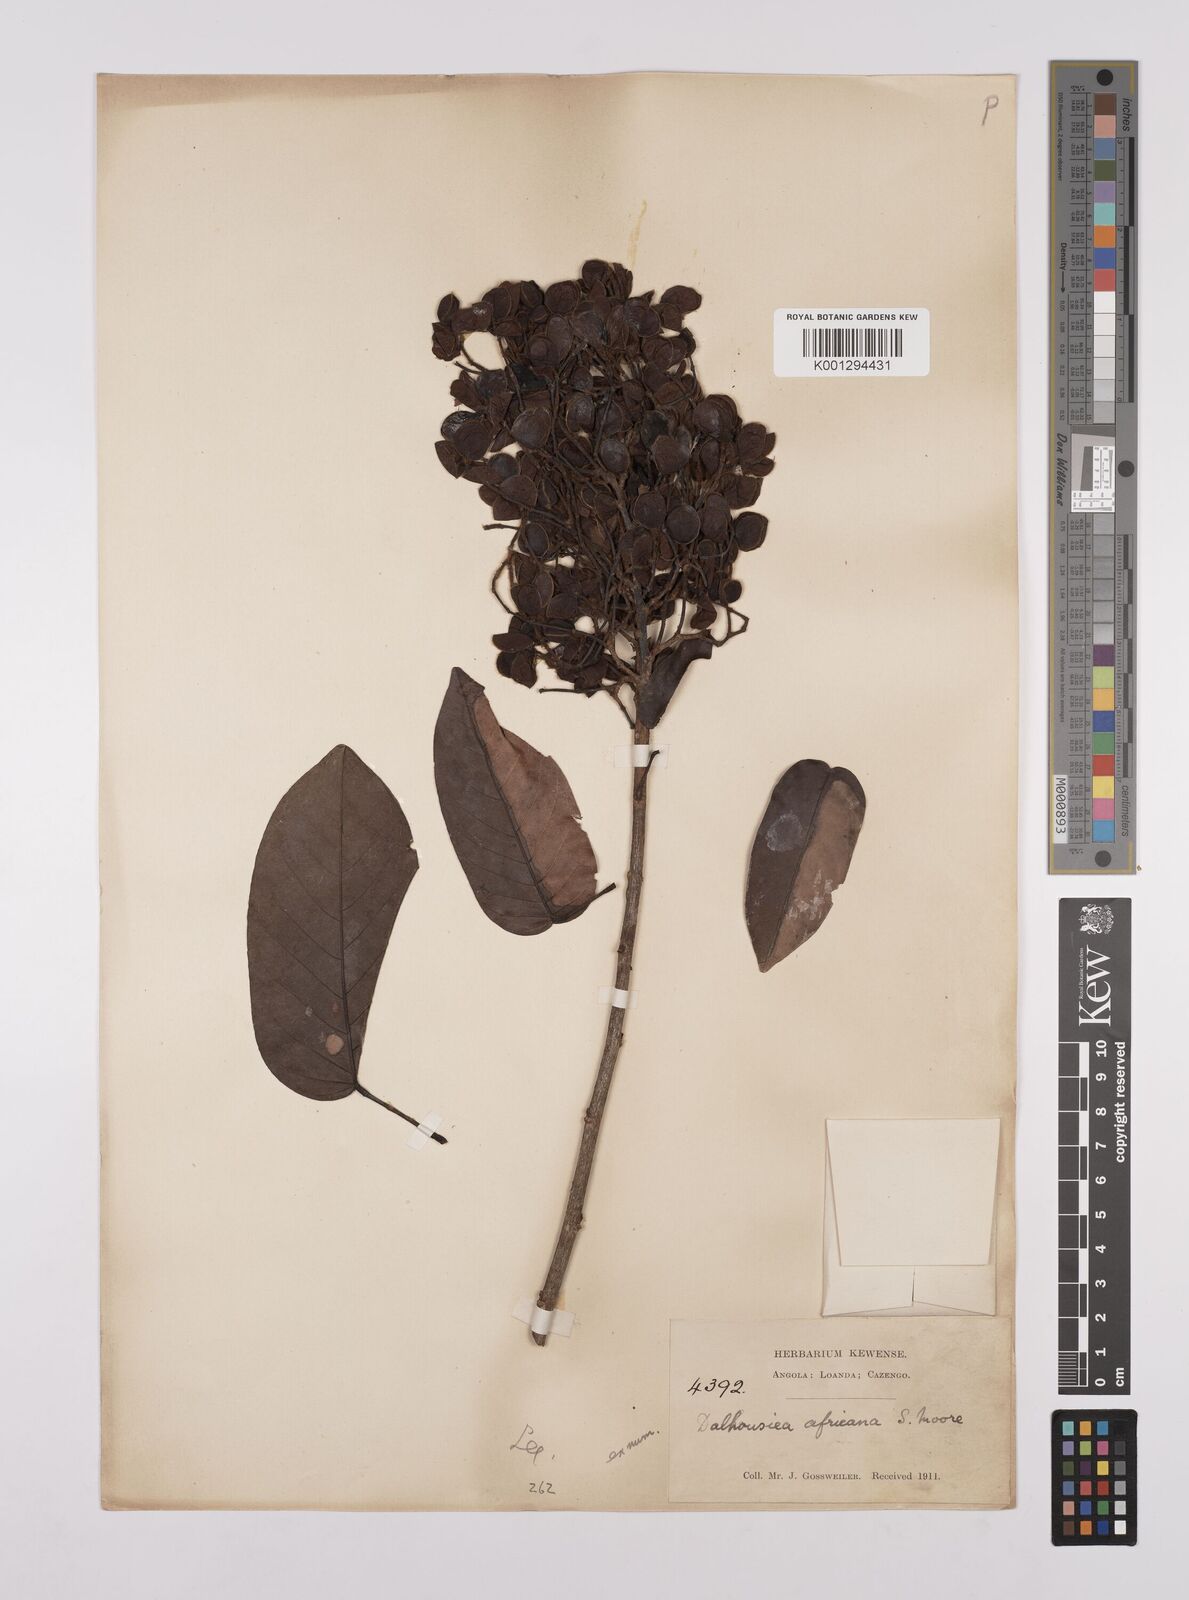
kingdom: Plantae
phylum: Tracheophyta
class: Magnoliopsida
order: Fabales
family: Fabaceae
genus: Dalhousiea
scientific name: Dalhousiea africana
